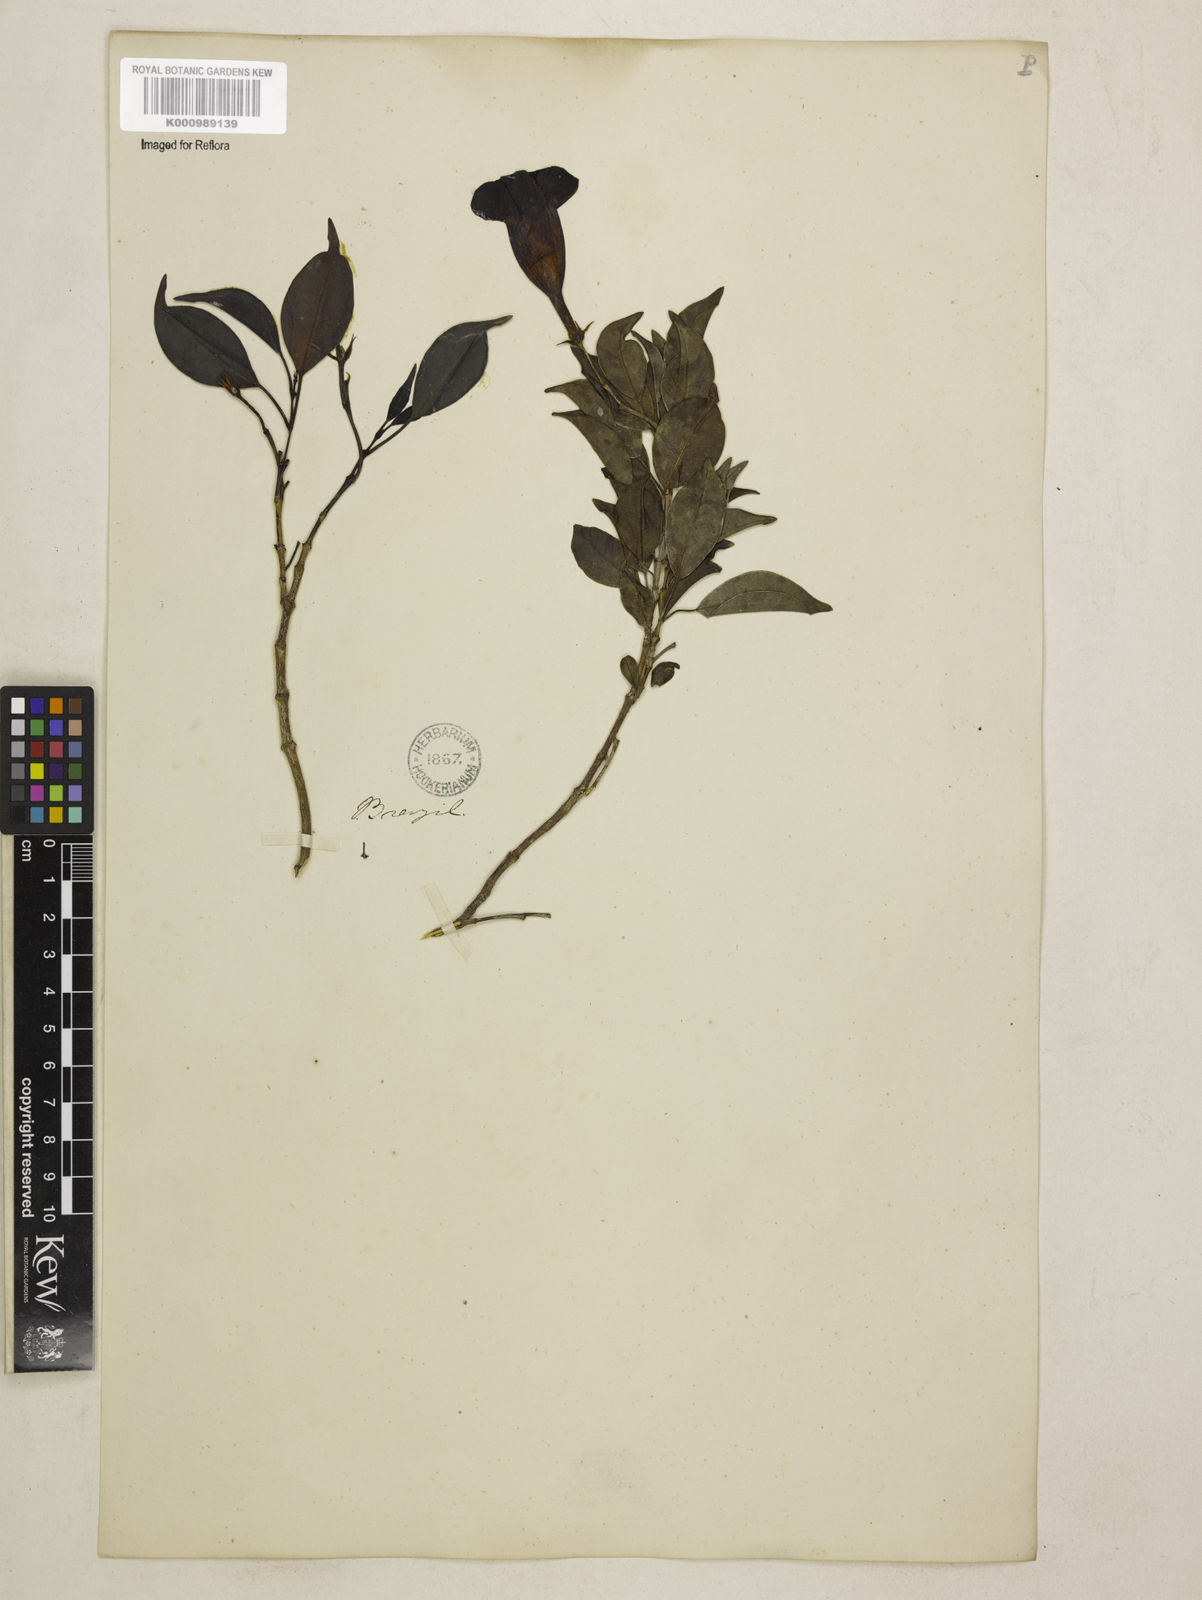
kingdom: Plantae
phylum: Tracheophyta
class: Magnoliopsida
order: Gentianales
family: Apocynaceae
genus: Mandevilla
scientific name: Mandevilla atroviolacea
